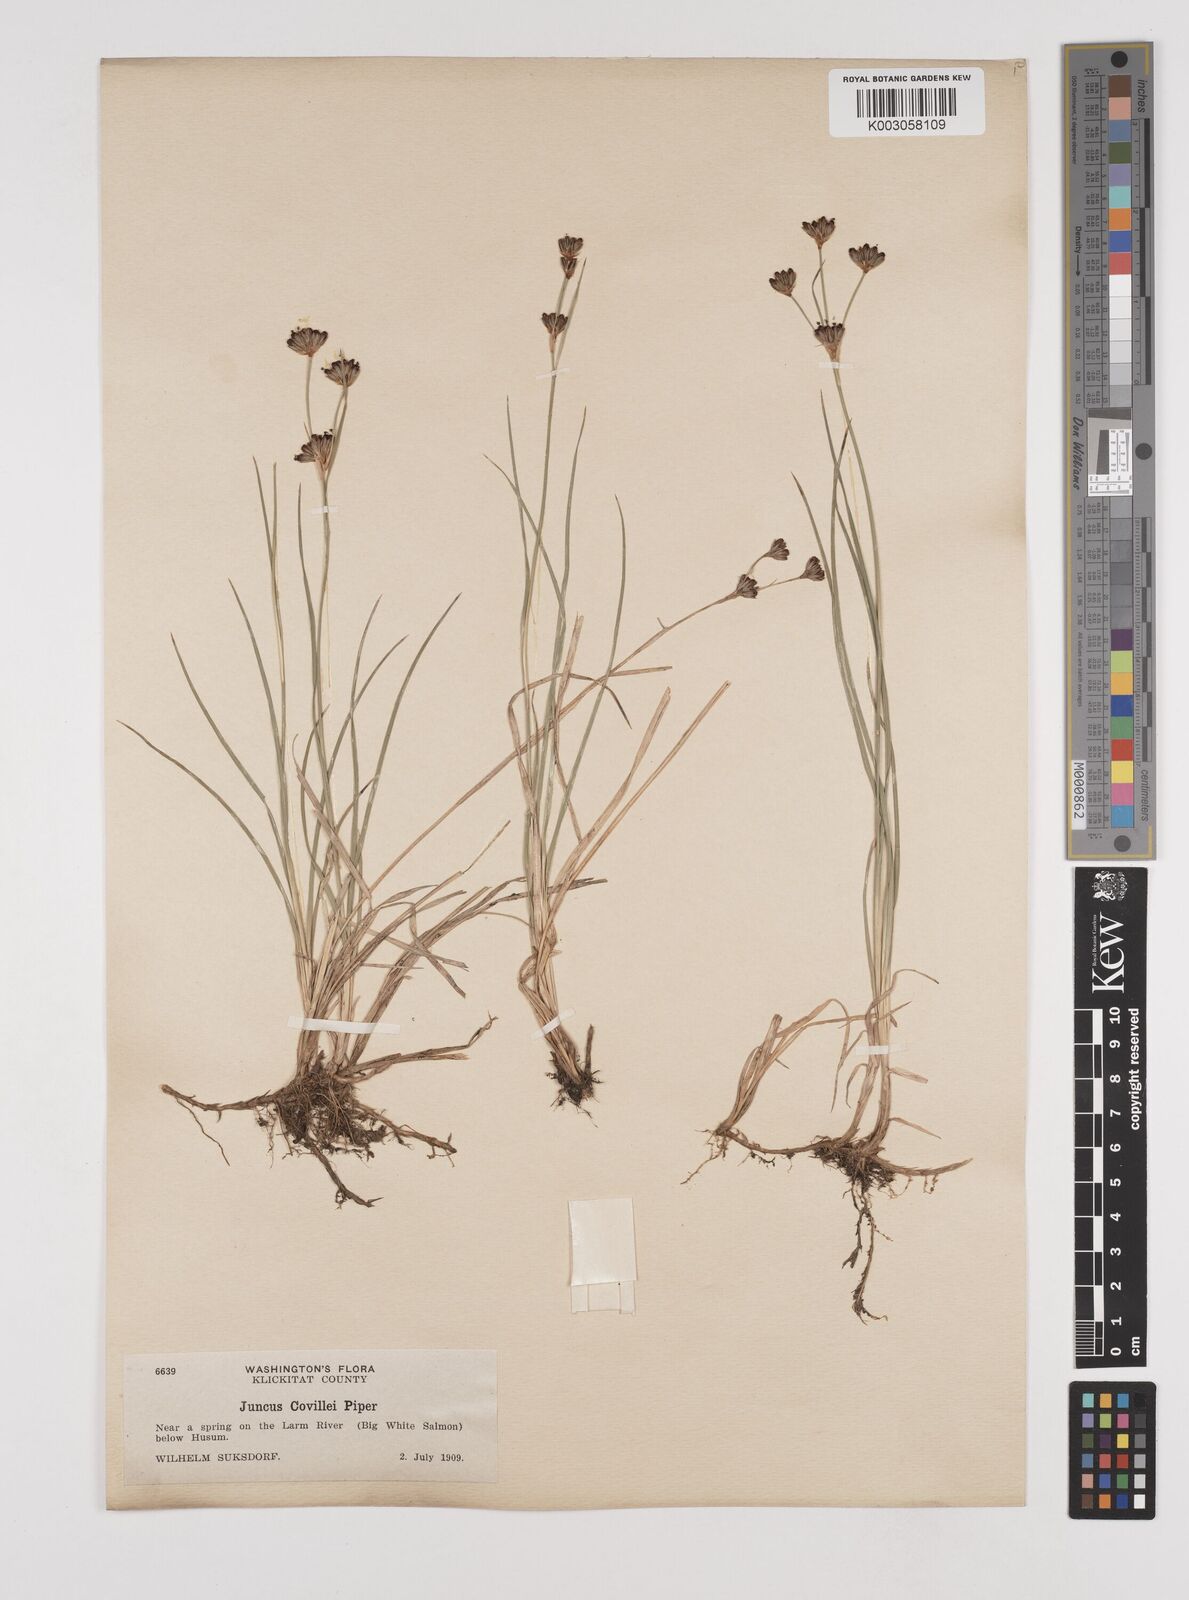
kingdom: Plantae
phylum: Tracheophyta
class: Liliopsida
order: Poales
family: Juncaceae
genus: Juncus
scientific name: Juncus covillei
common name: Coville's rush
